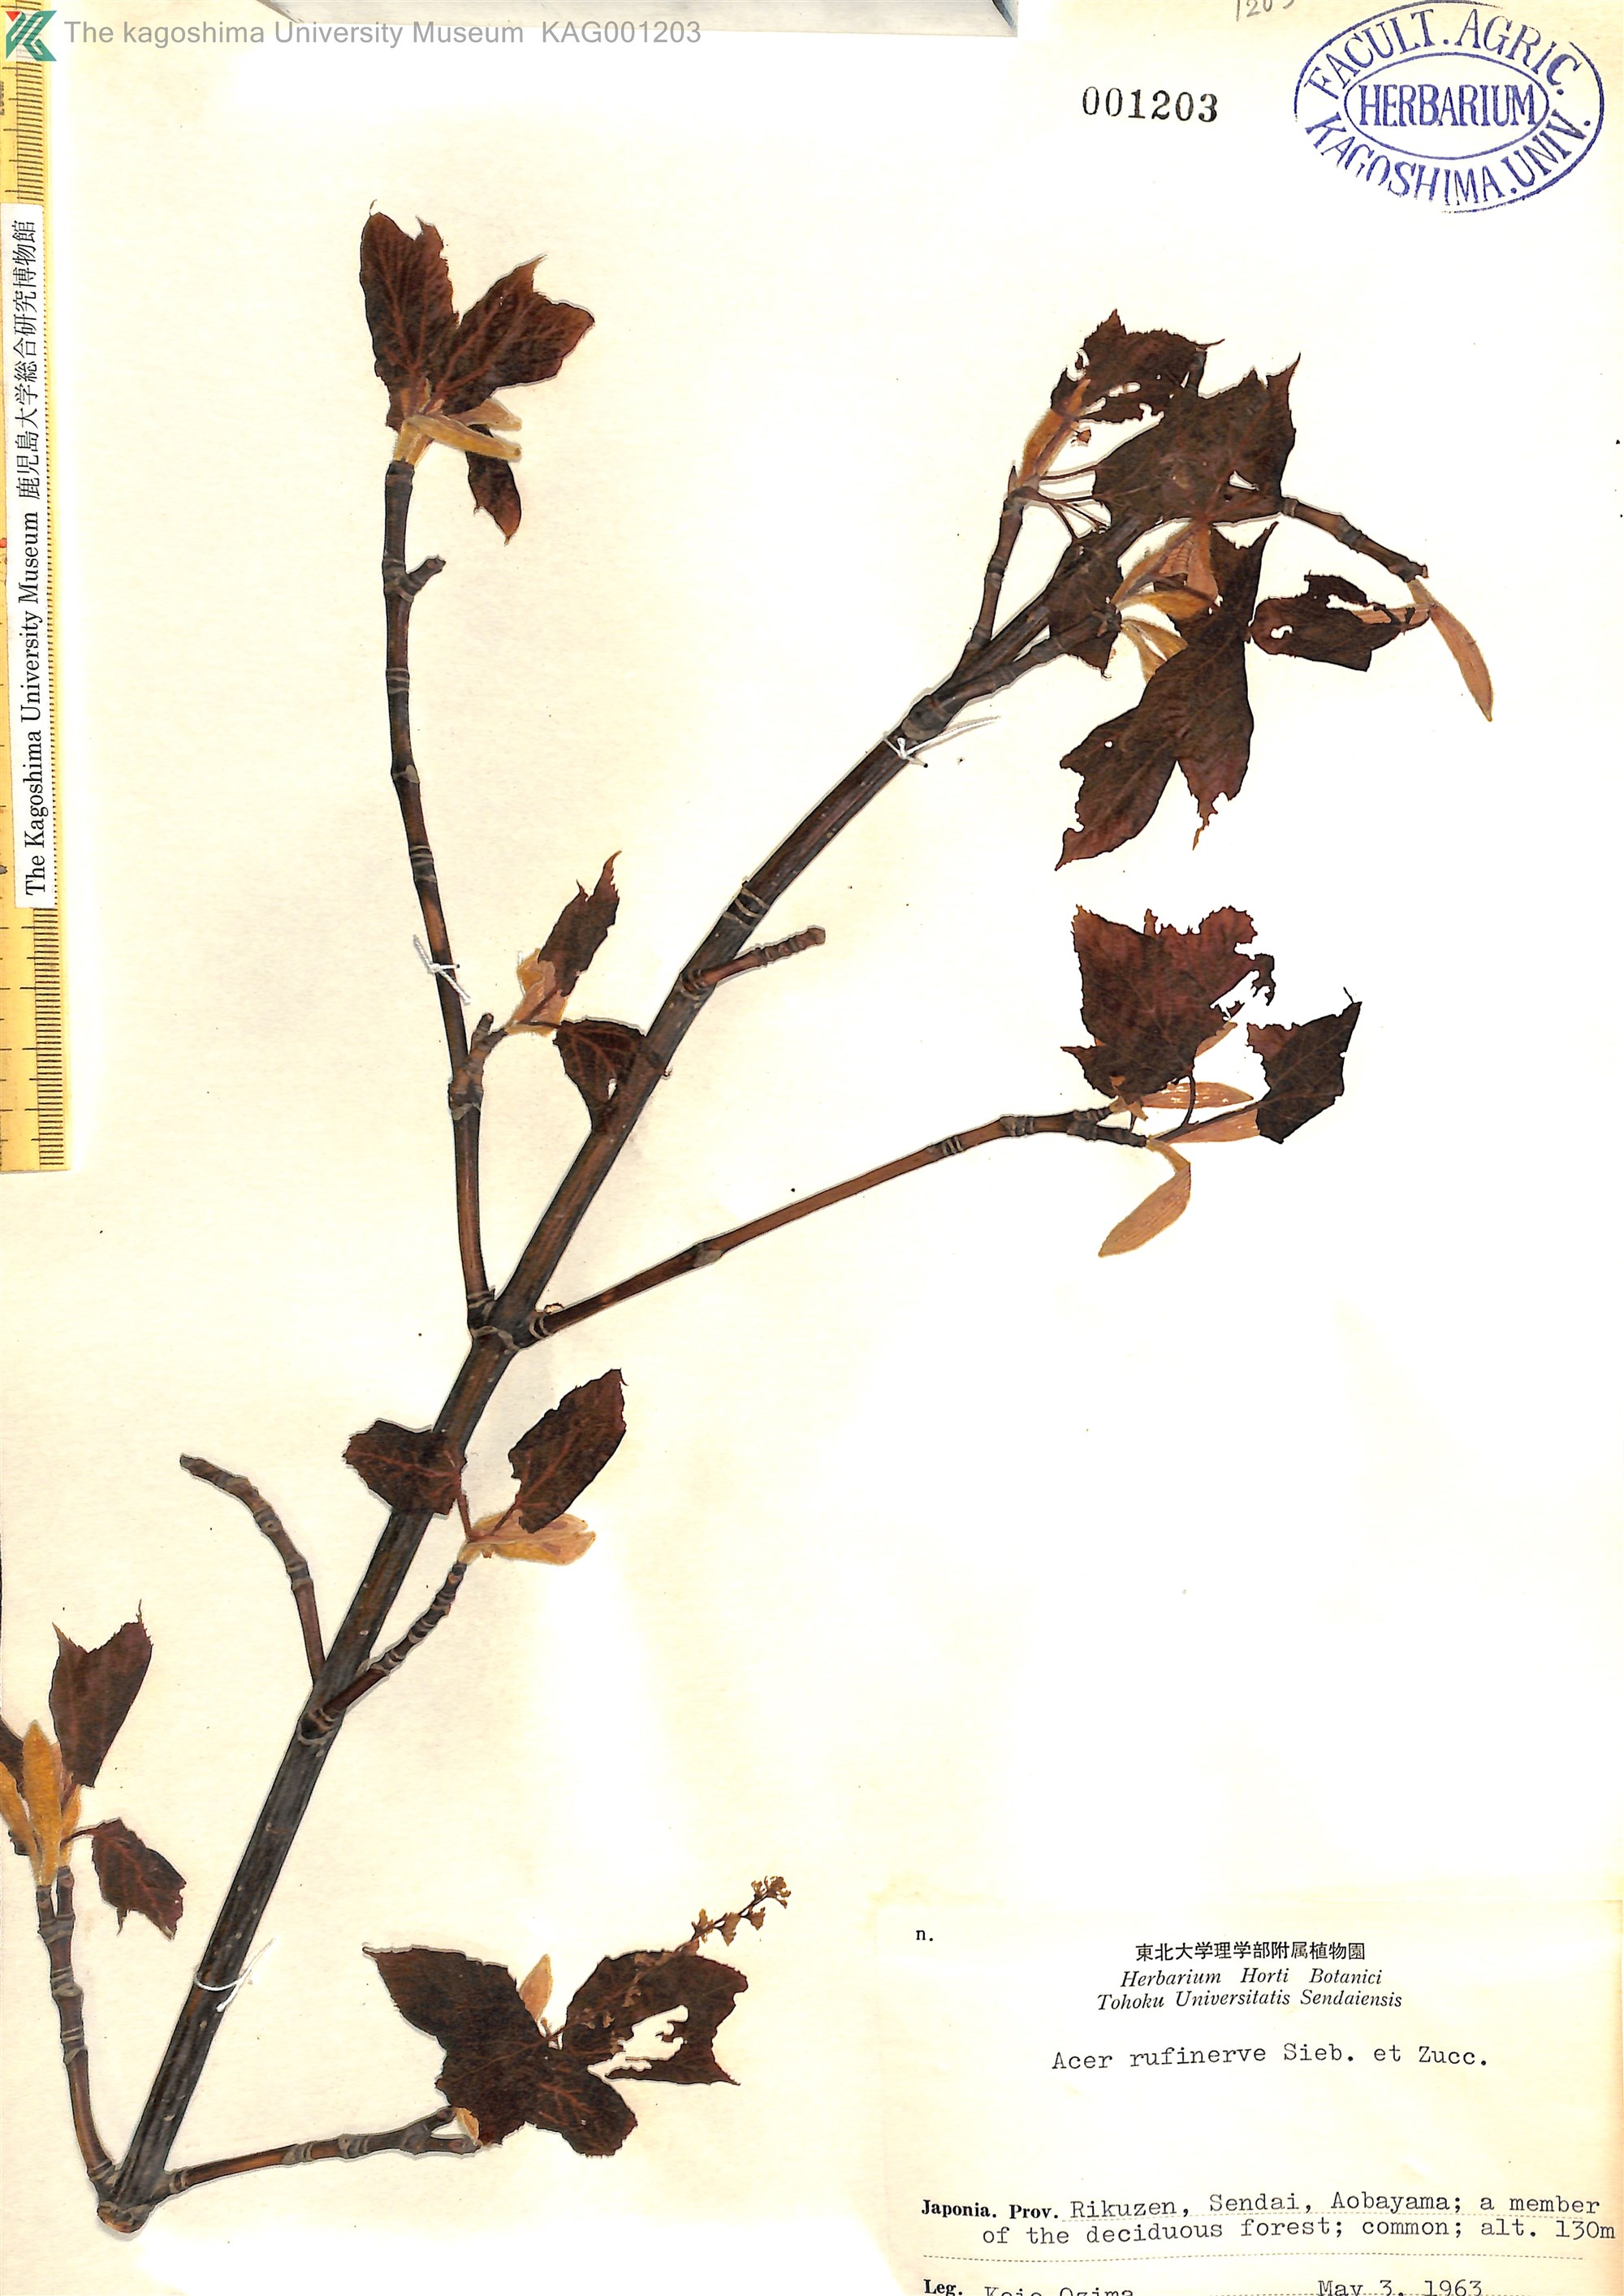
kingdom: Plantae
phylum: Tracheophyta
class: Magnoliopsida
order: Sapindales
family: Sapindaceae
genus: Acer
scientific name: Acer rufinerve
